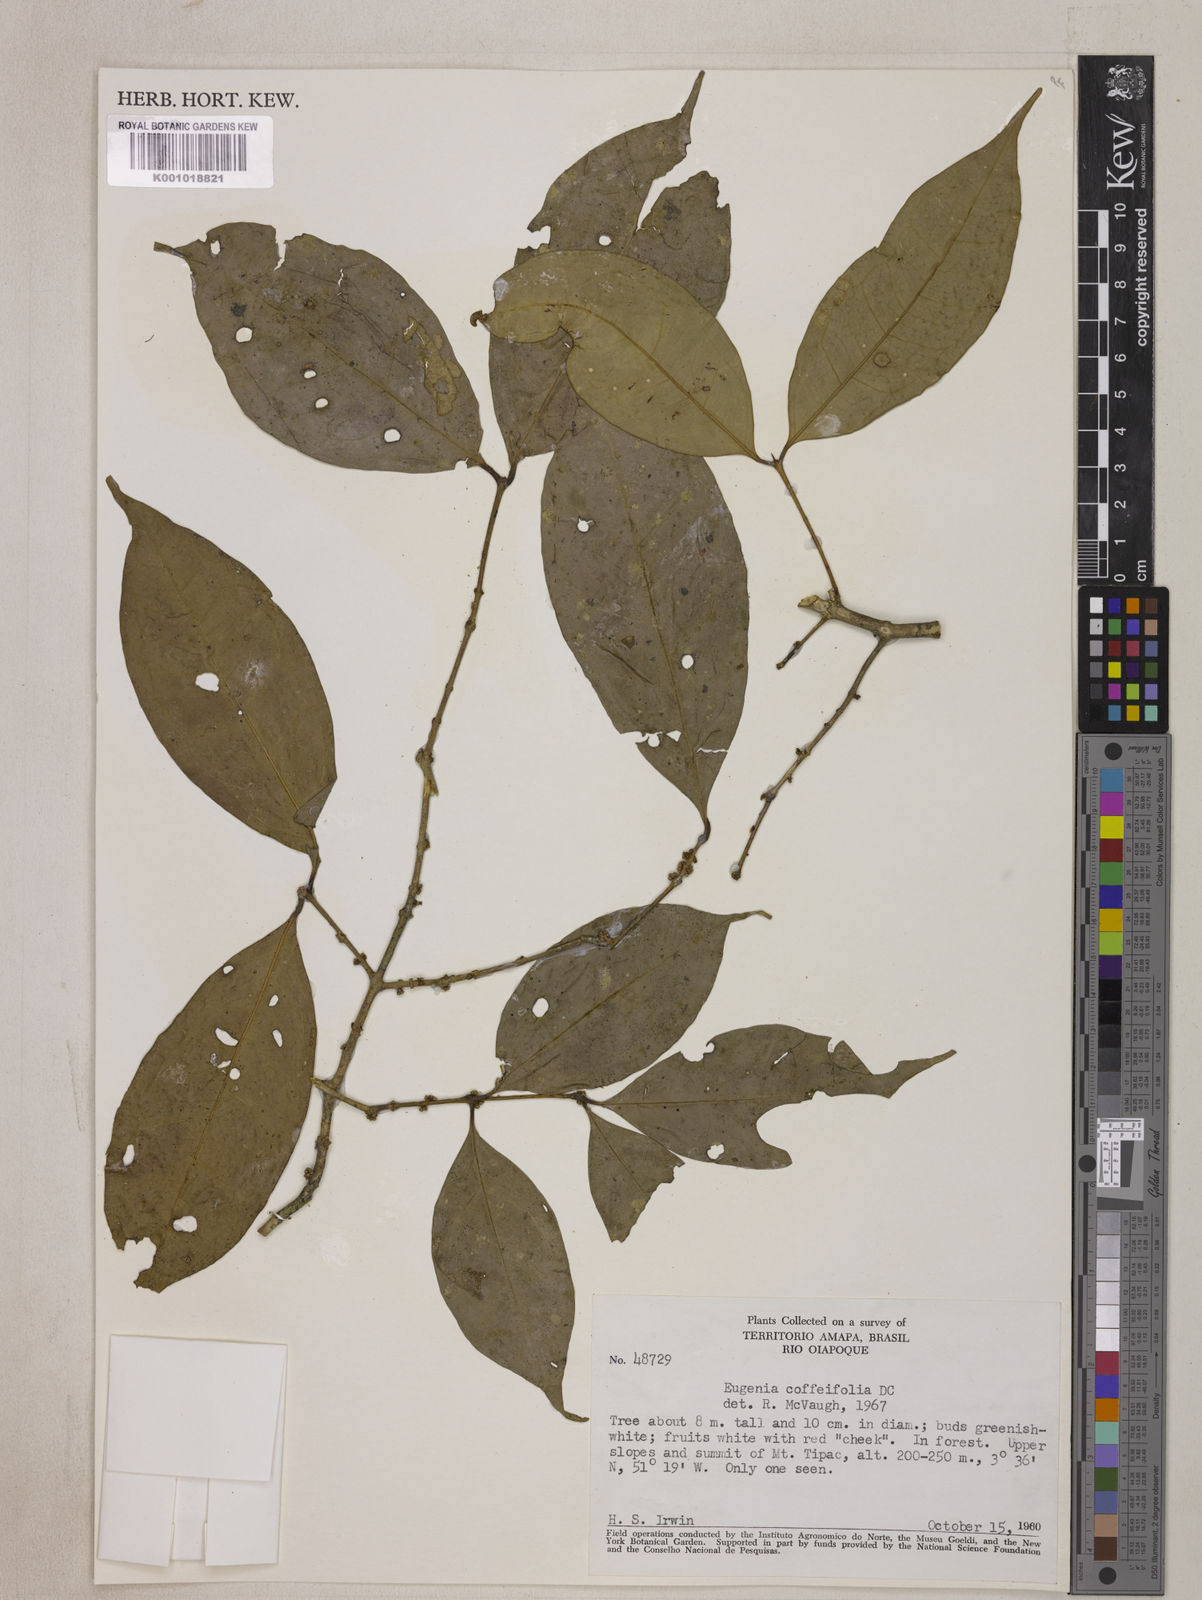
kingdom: Plantae
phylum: Tracheophyta
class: Magnoliopsida
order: Myrtales
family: Myrtaceae
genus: Eugenia
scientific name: Eugenia coffeifolia
